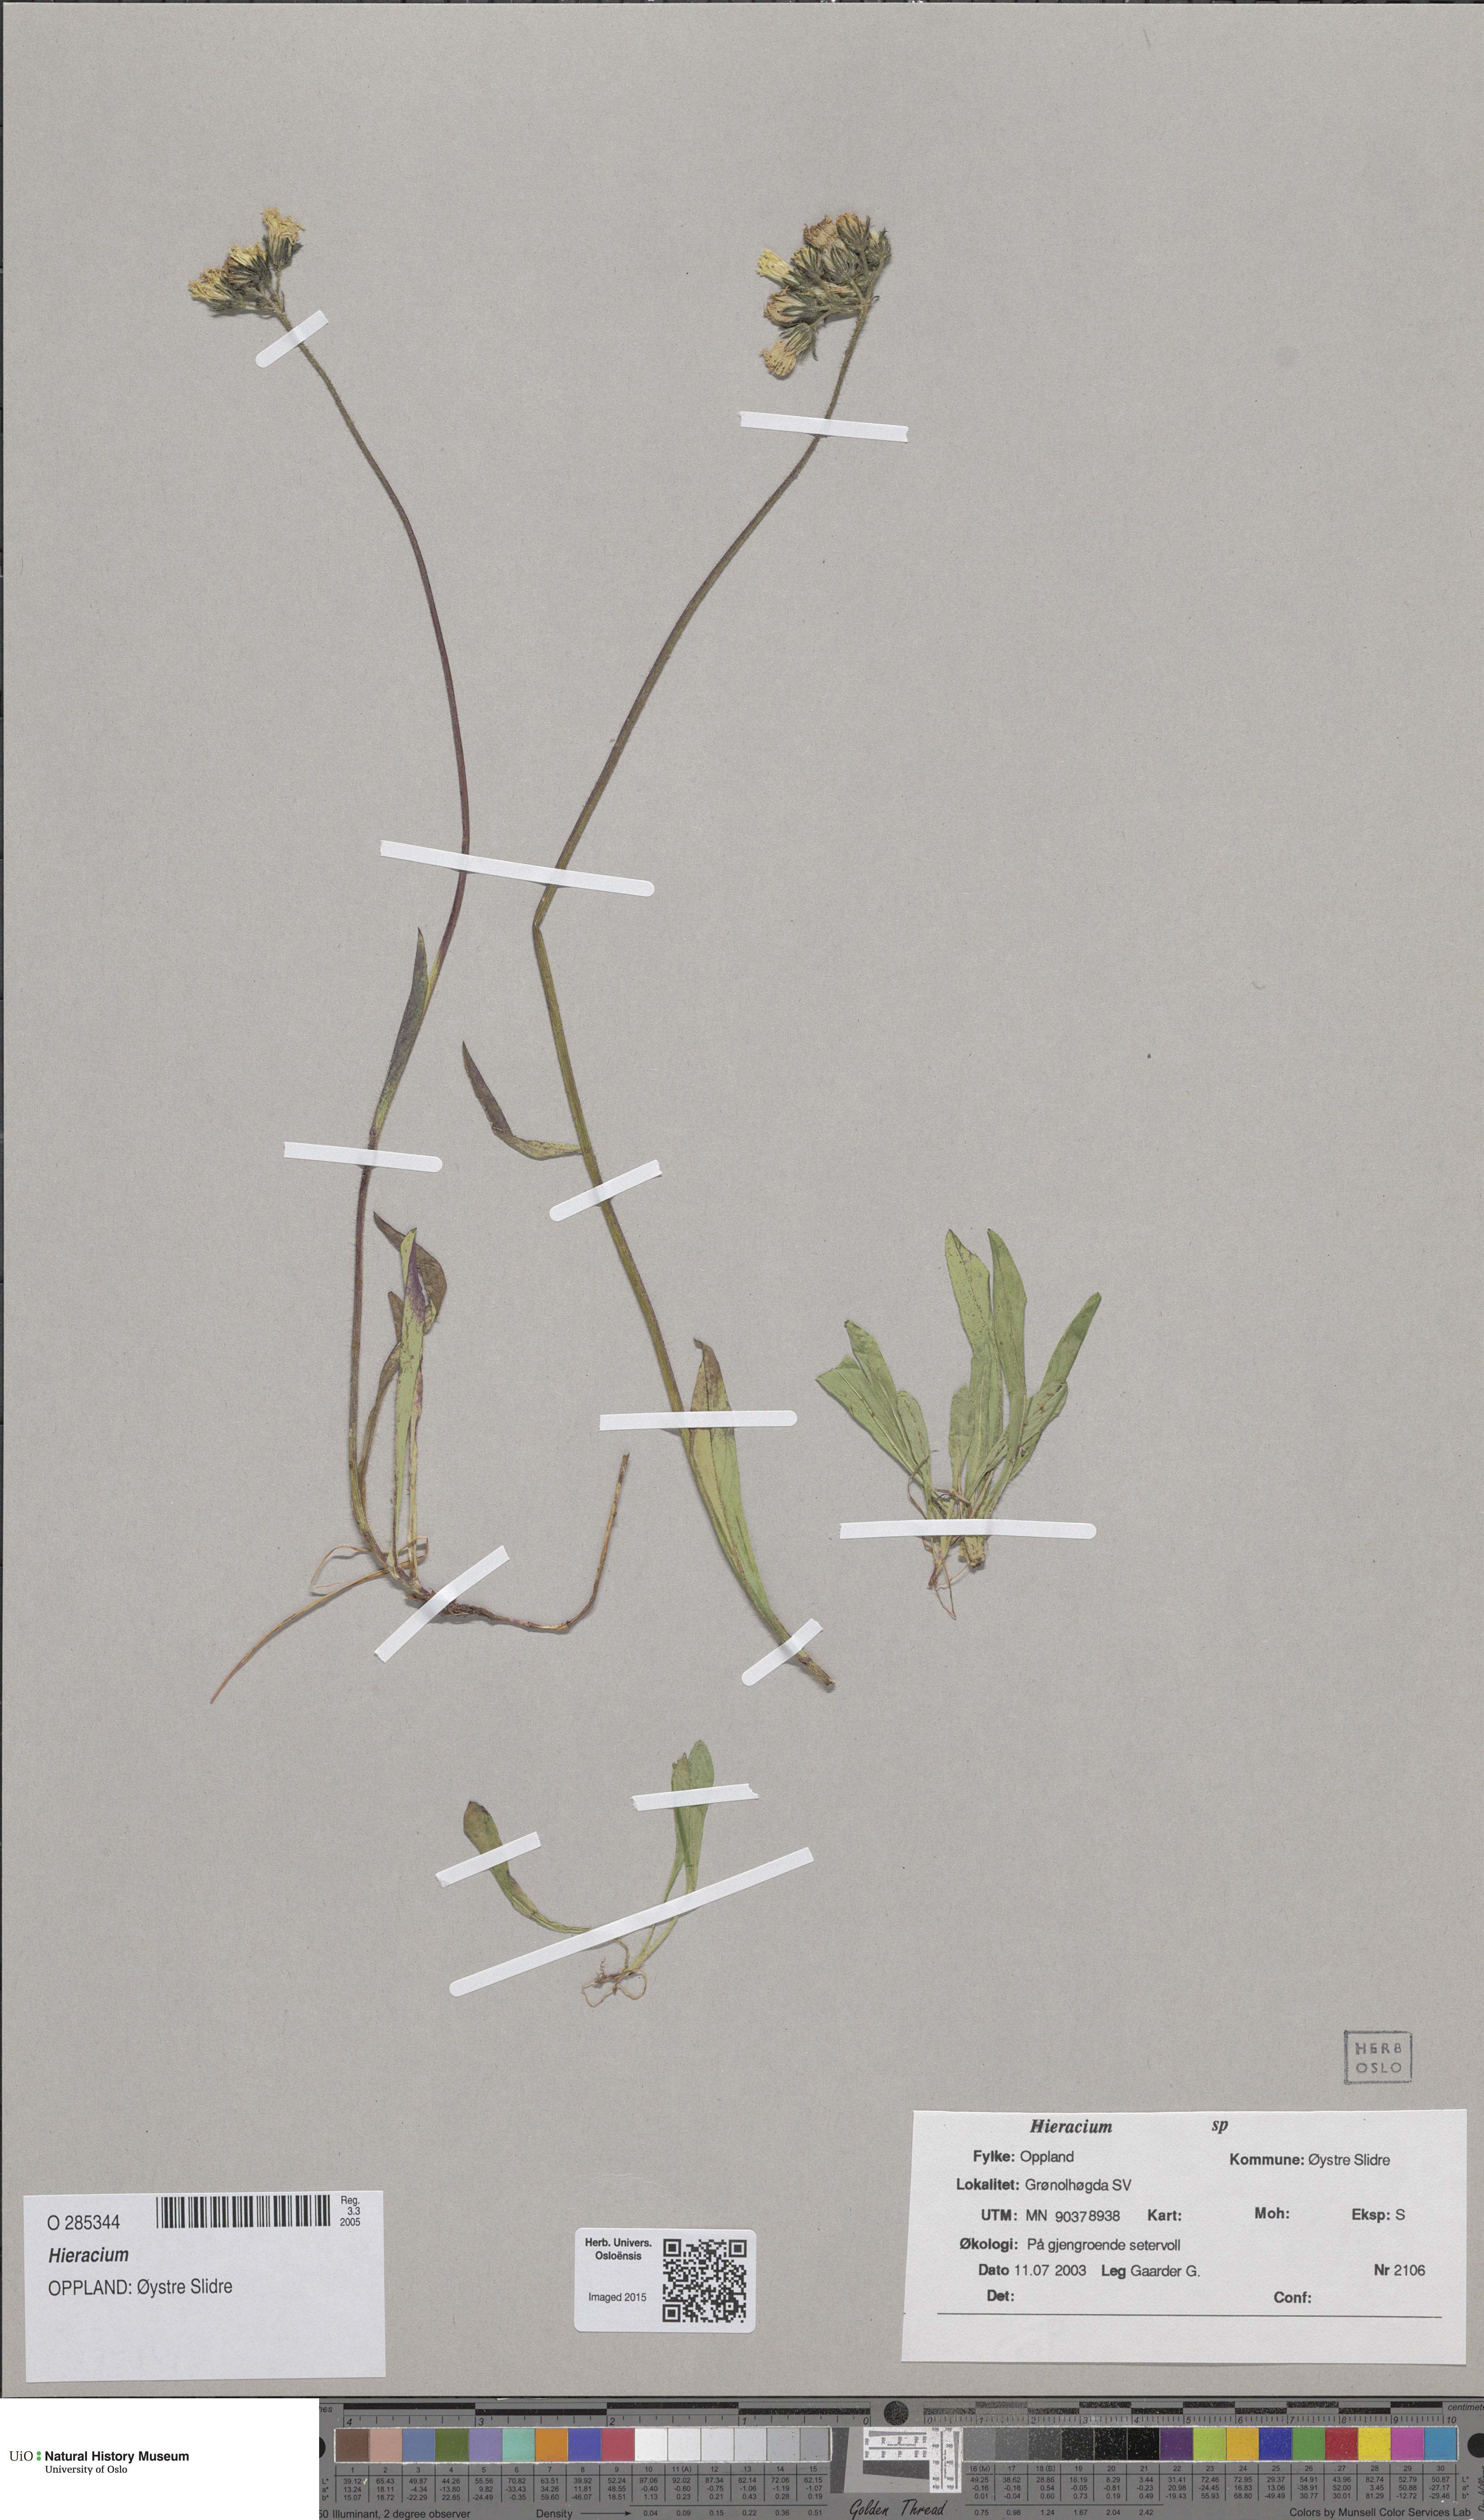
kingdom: Plantae
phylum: Tracheophyta
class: Magnoliopsida
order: Asterales
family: Asteraceae
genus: Hieracium
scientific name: Hieracium
